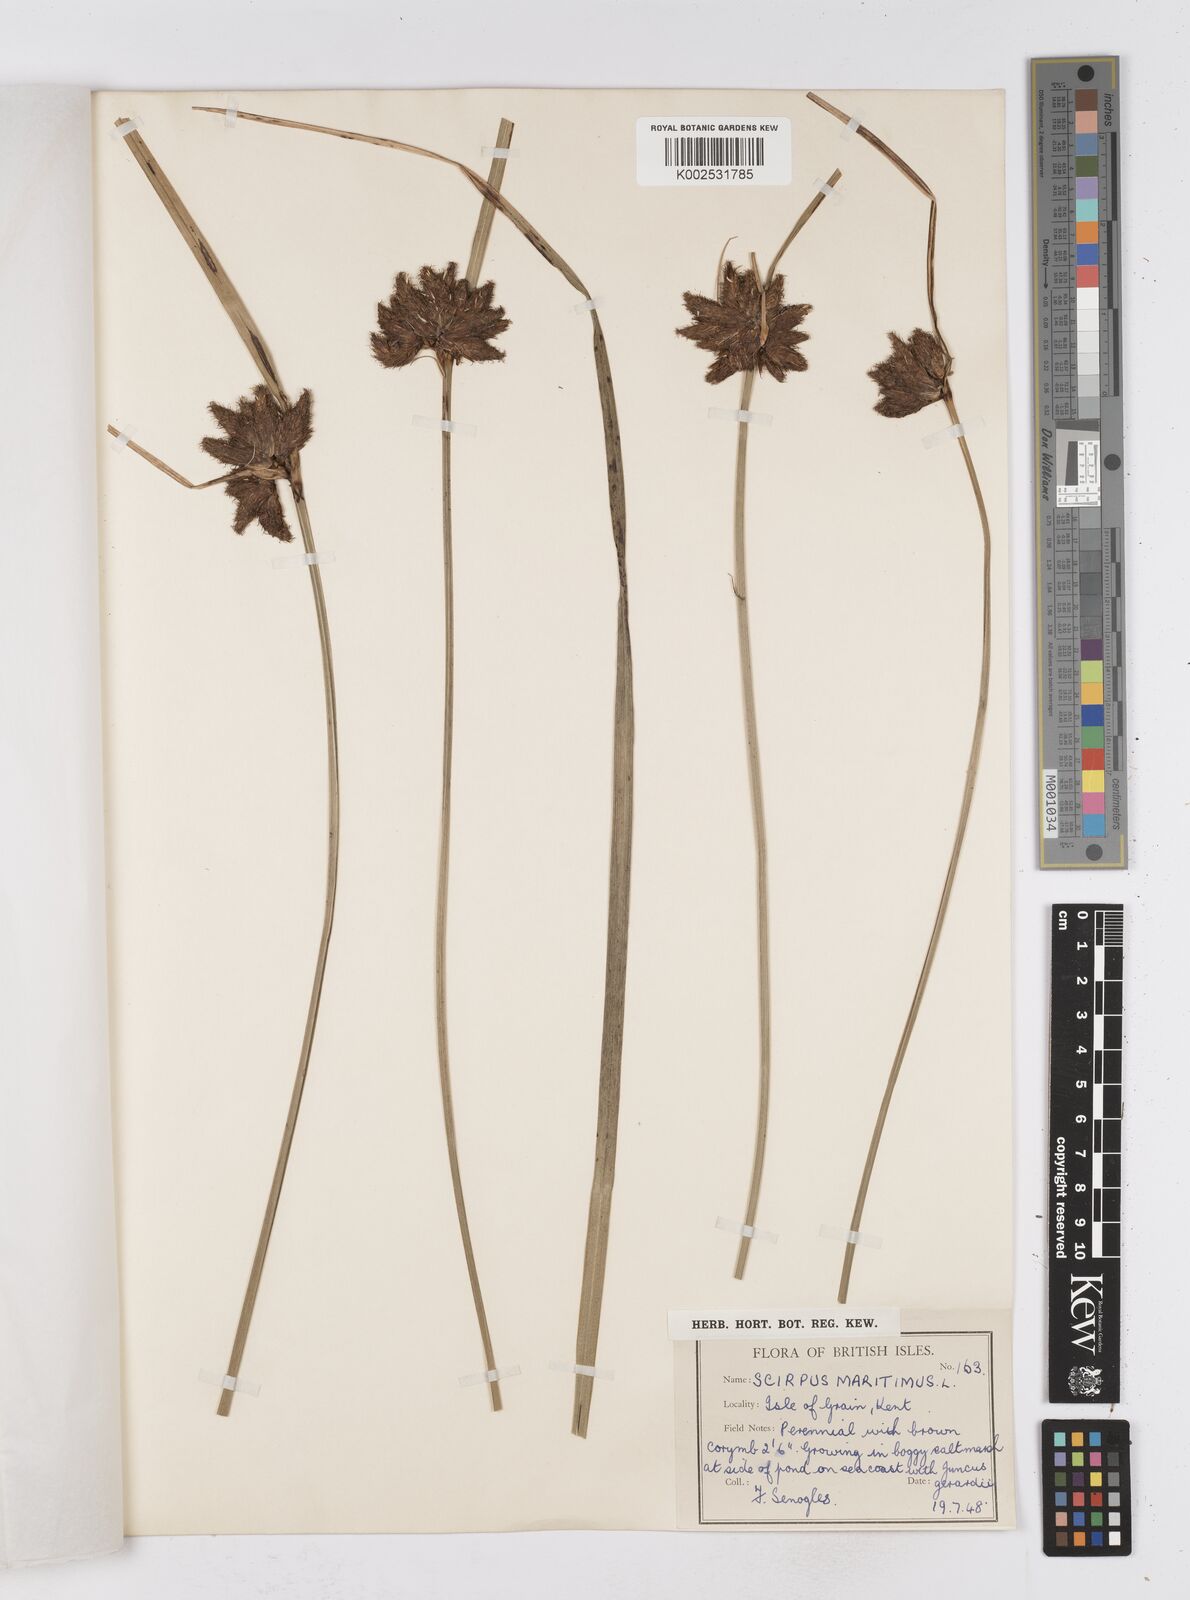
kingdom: Plantae
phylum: Tracheophyta
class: Liliopsida
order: Poales
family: Cyperaceae
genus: Bolboschoenus
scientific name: Bolboschoenus maritimus
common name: Sea club-rush
